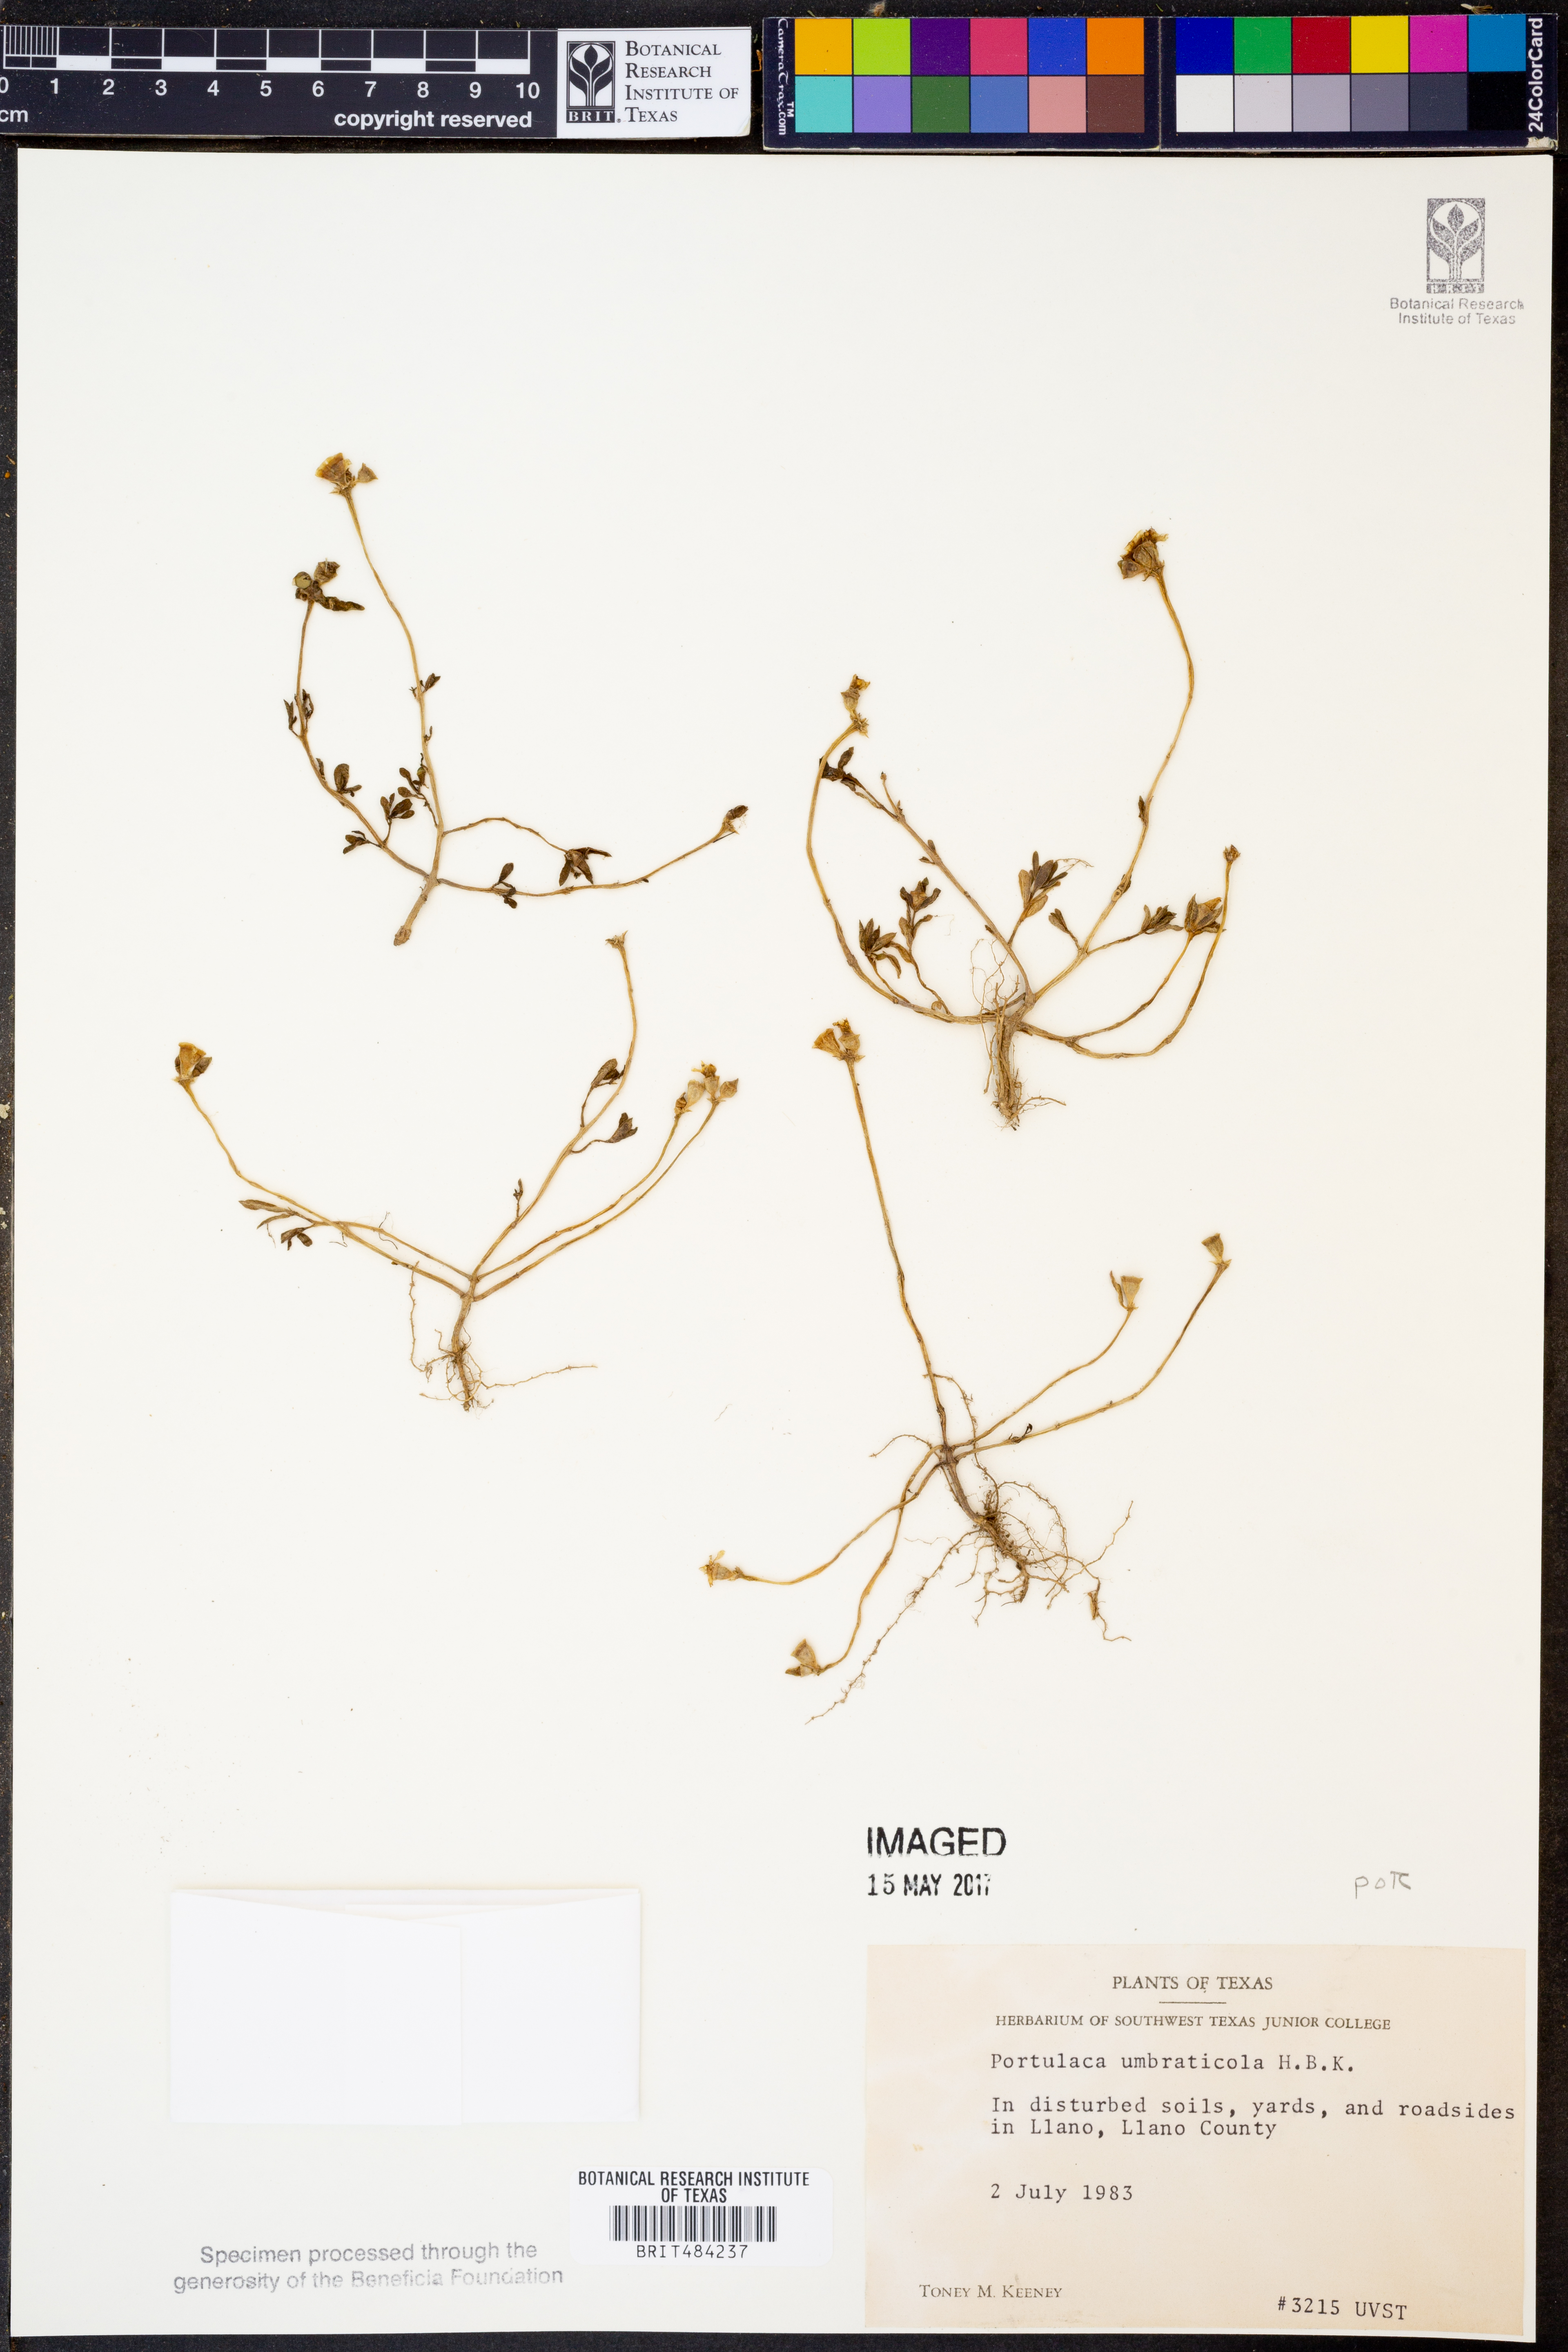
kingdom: Plantae
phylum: Tracheophyta
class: Magnoliopsida
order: Caryophyllales
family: Portulacaceae
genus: Portulaca
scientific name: Portulaca umbraticola
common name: Wingpod purslane
